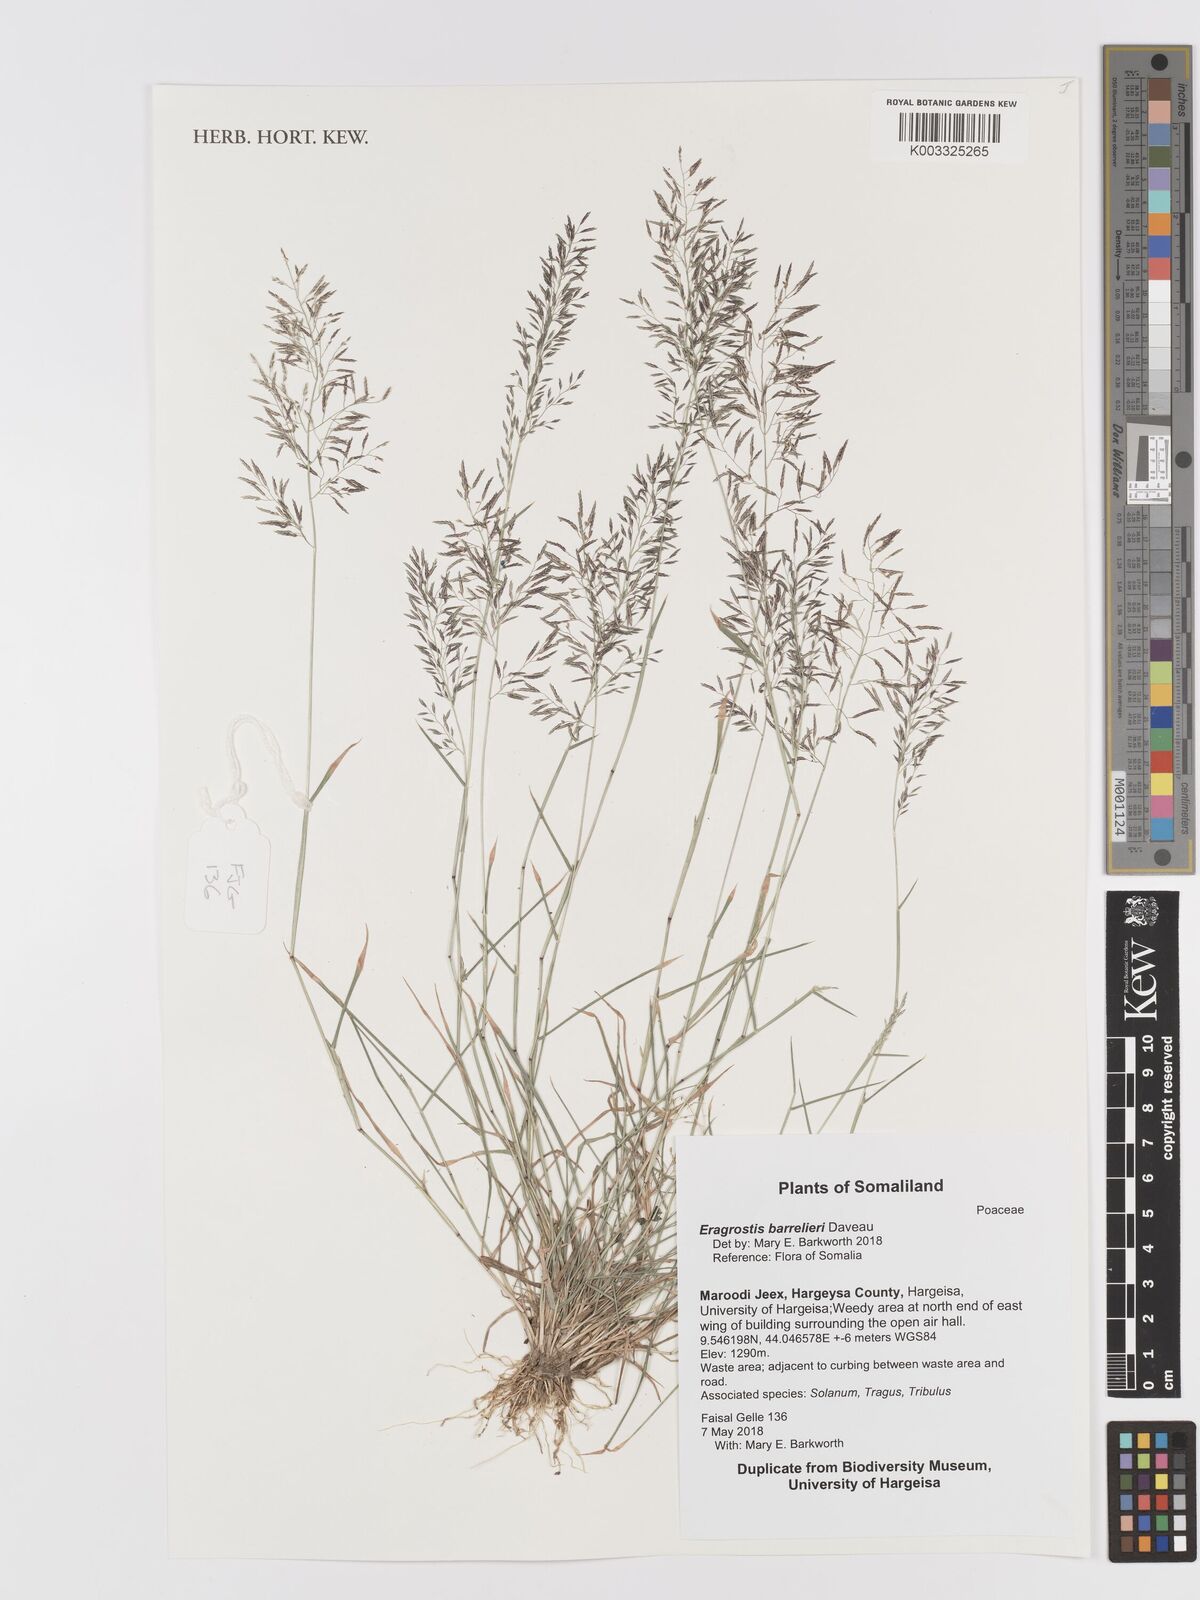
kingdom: Plantae
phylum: Tracheophyta
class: Liliopsida
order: Poales
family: Poaceae
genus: Eragrostis
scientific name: Eragrostis barrelieri
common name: Mediterranean lovegrass
